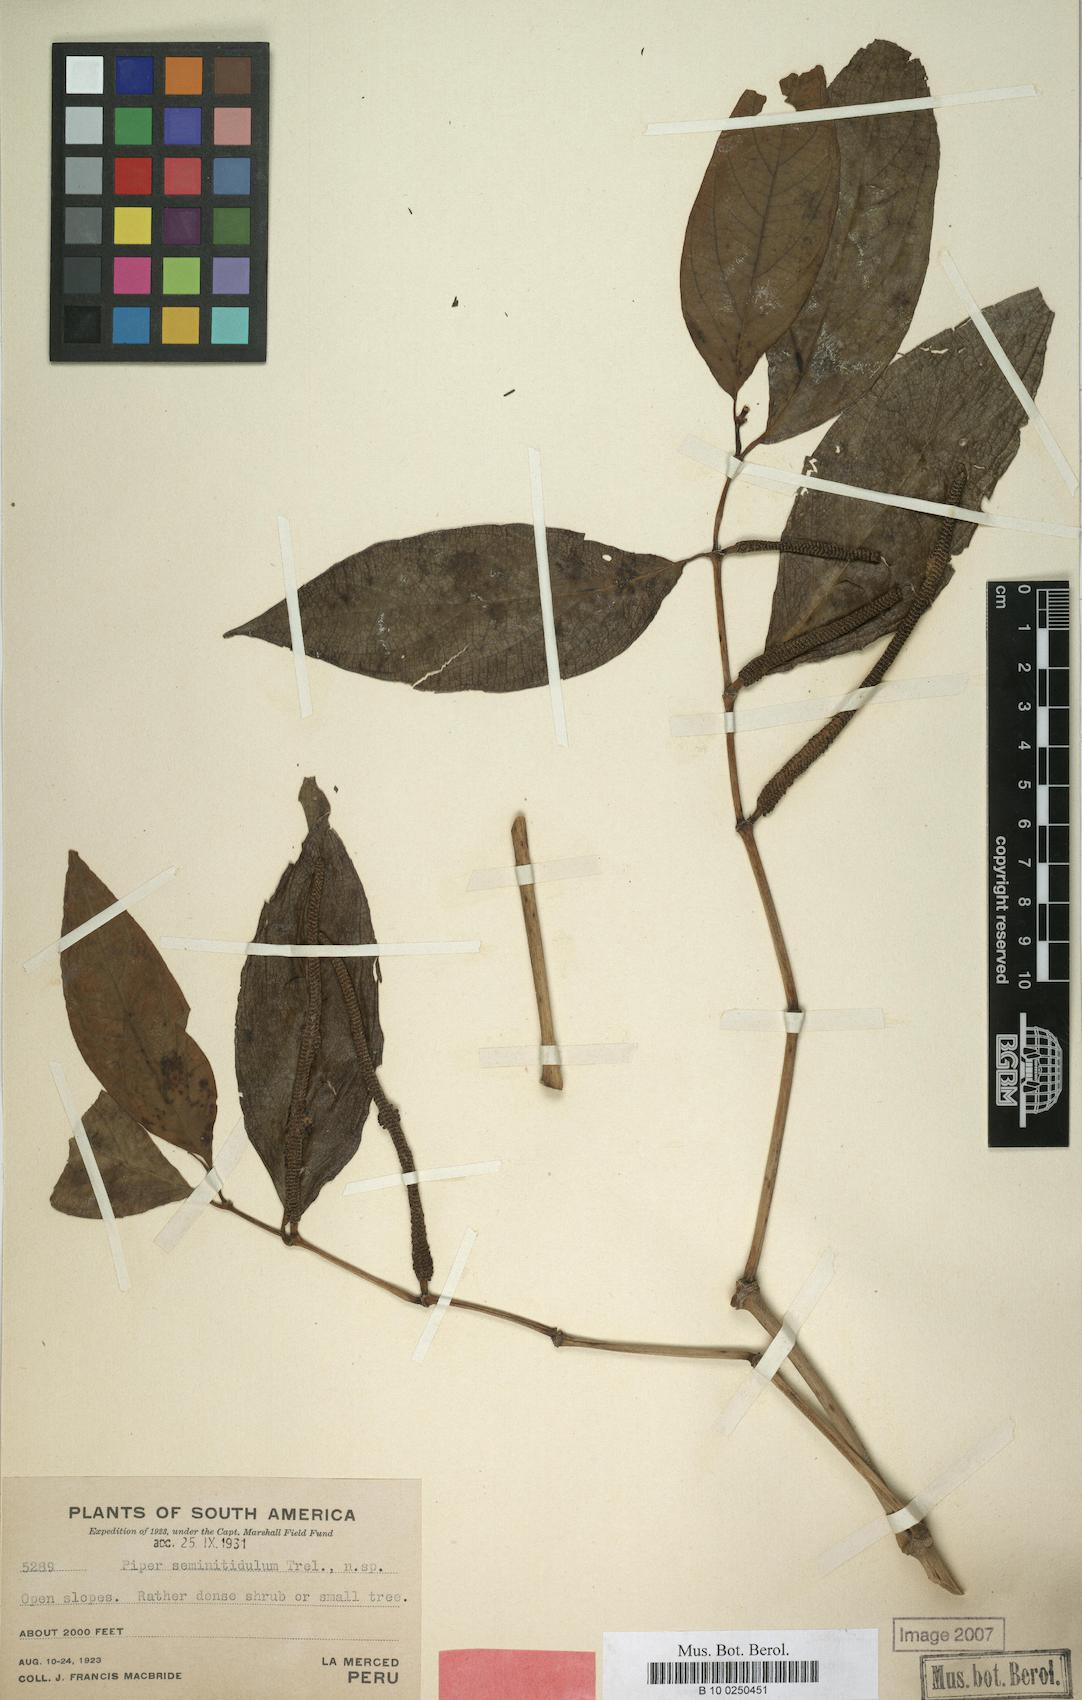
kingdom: Plantae
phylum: Tracheophyta
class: Magnoliopsida
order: Piperales
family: Piperaceae
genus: Piper
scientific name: Piper seminitidulum
